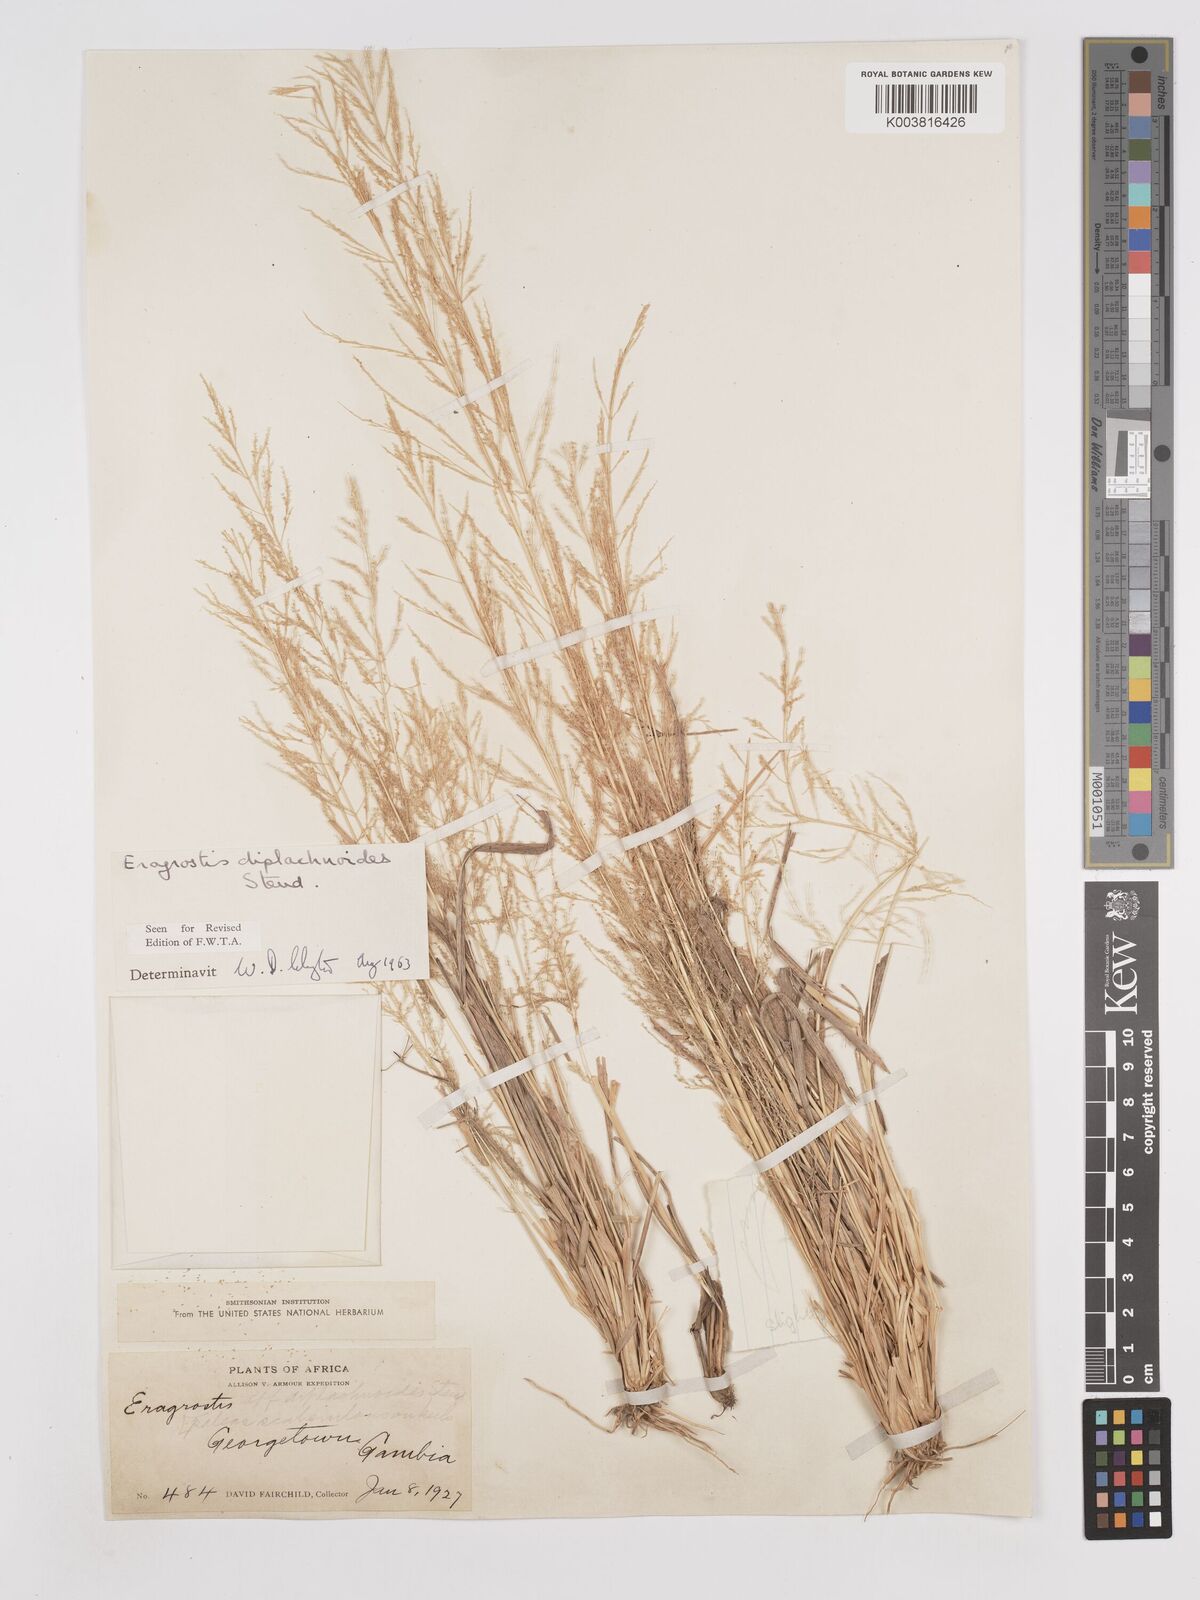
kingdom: Plantae
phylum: Tracheophyta
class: Liliopsida
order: Poales
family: Poaceae
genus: Eragrostis
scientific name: Eragrostis japonica
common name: Pond lovegrass
